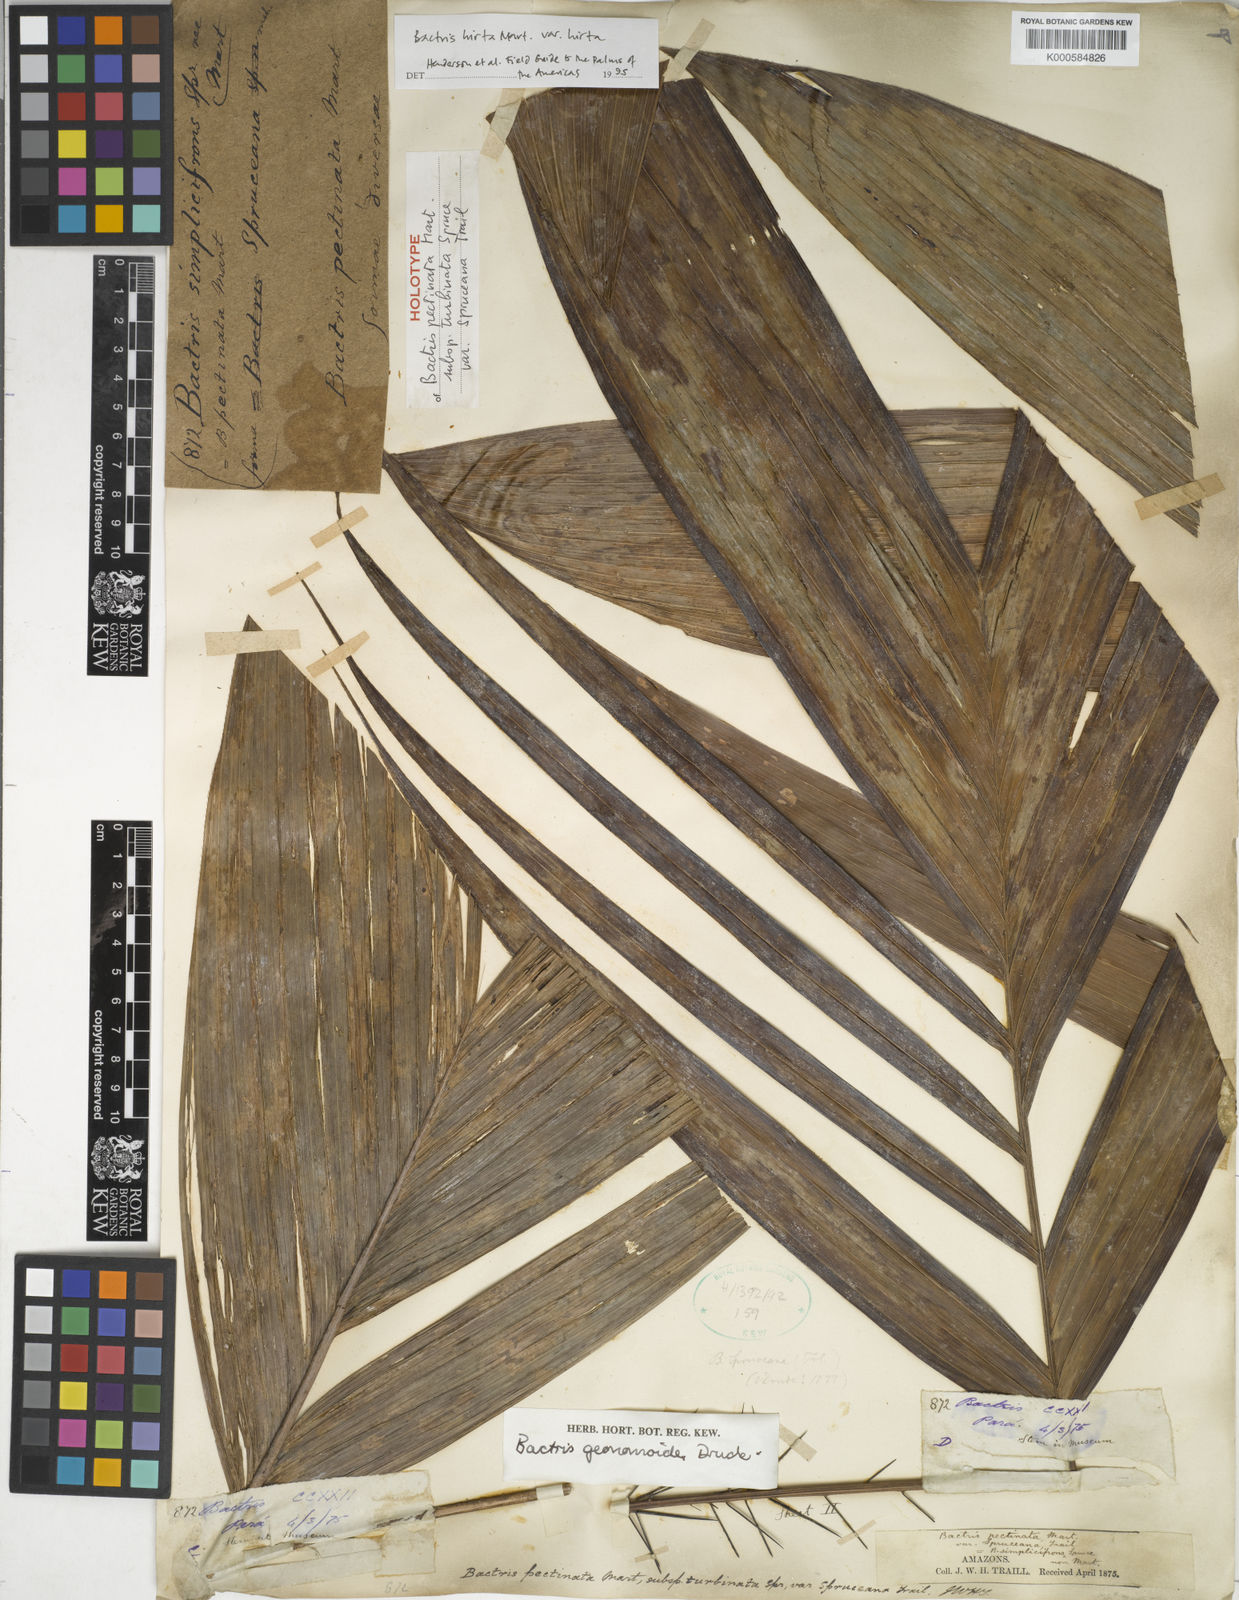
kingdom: Plantae
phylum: Tracheophyta
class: Liliopsida
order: Arecales
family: Arecaceae
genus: Bactris
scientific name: Bactris hirta
